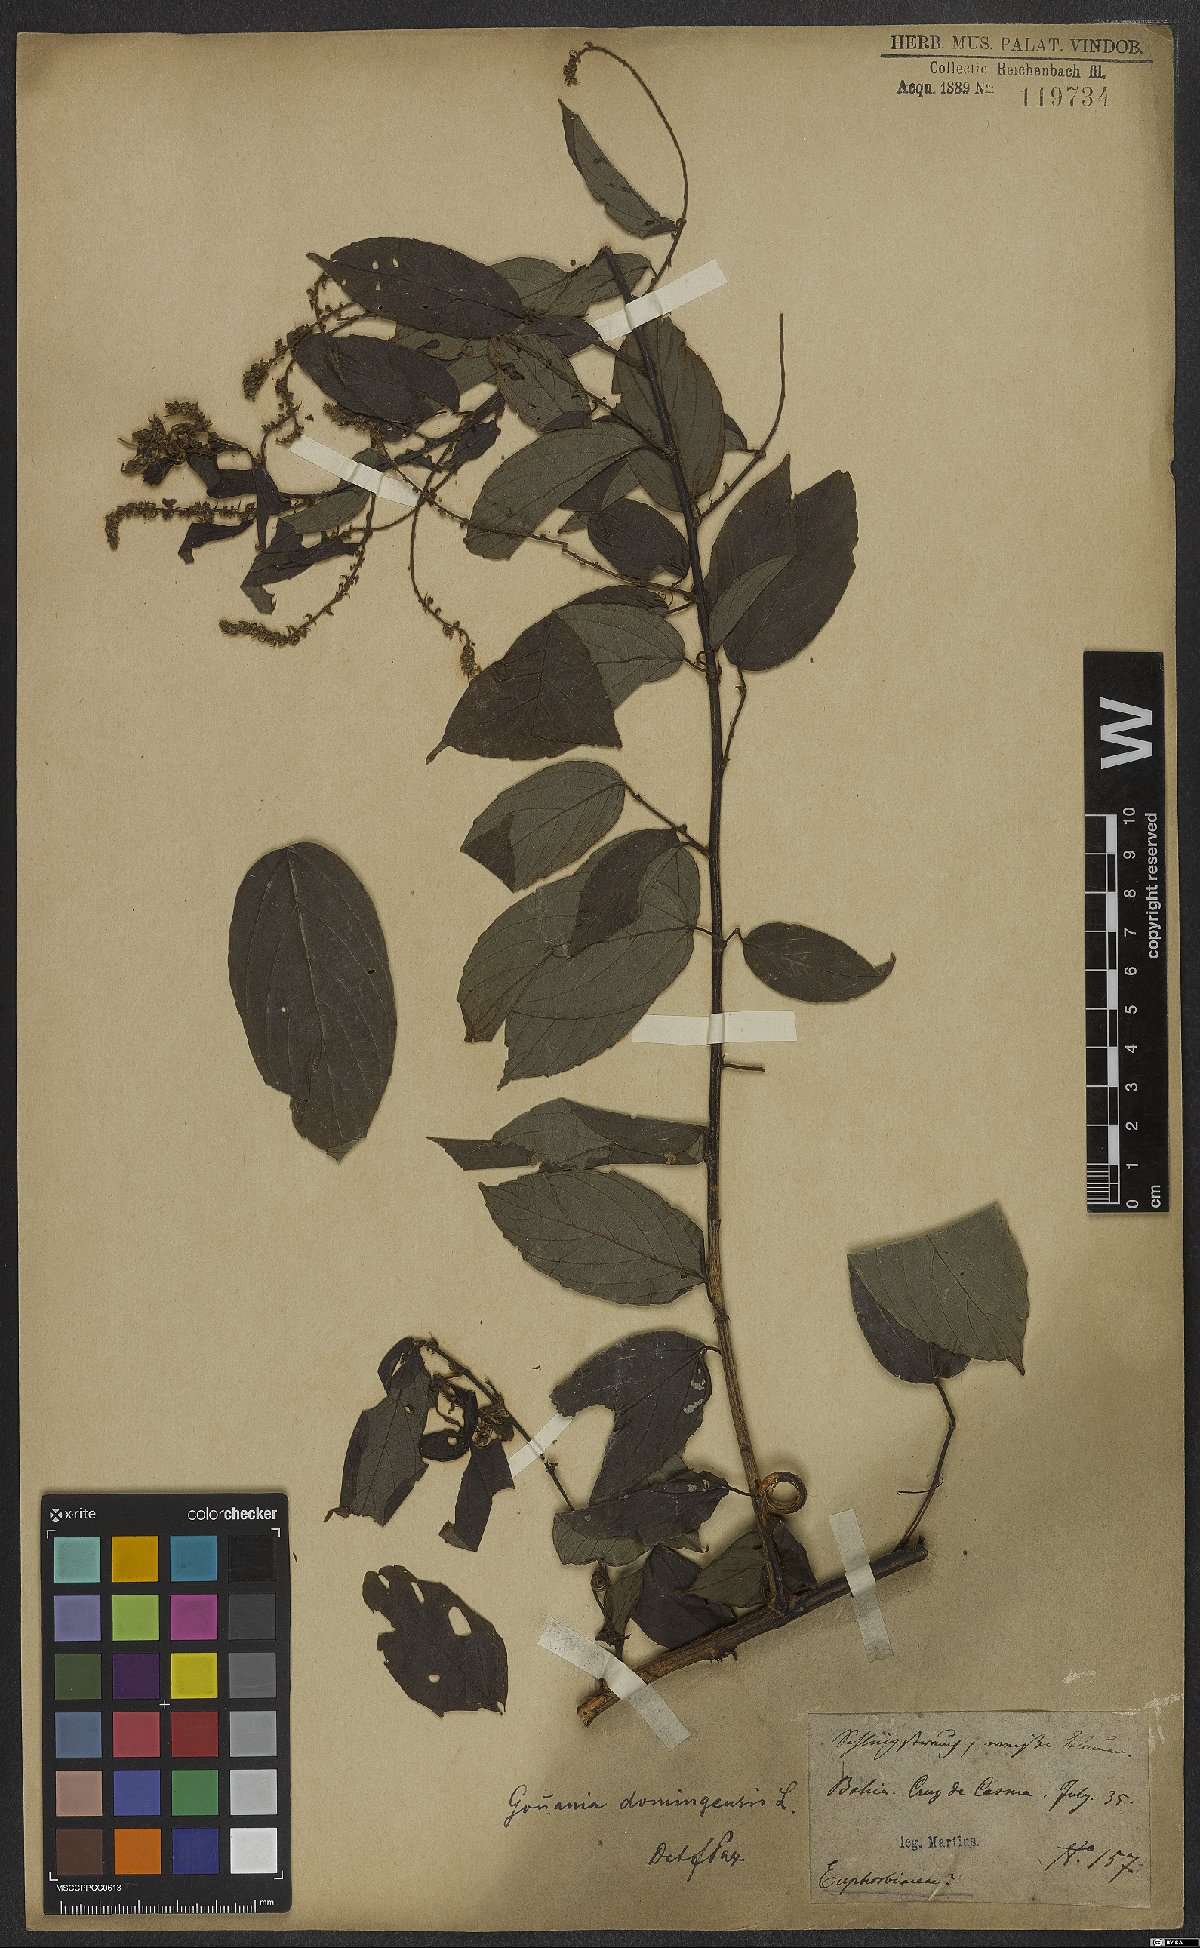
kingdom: Plantae
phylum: Tracheophyta
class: Magnoliopsida
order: Rosales
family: Rhamnaceae
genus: Gouania
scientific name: Gouania lupuloides
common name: Chewstick
